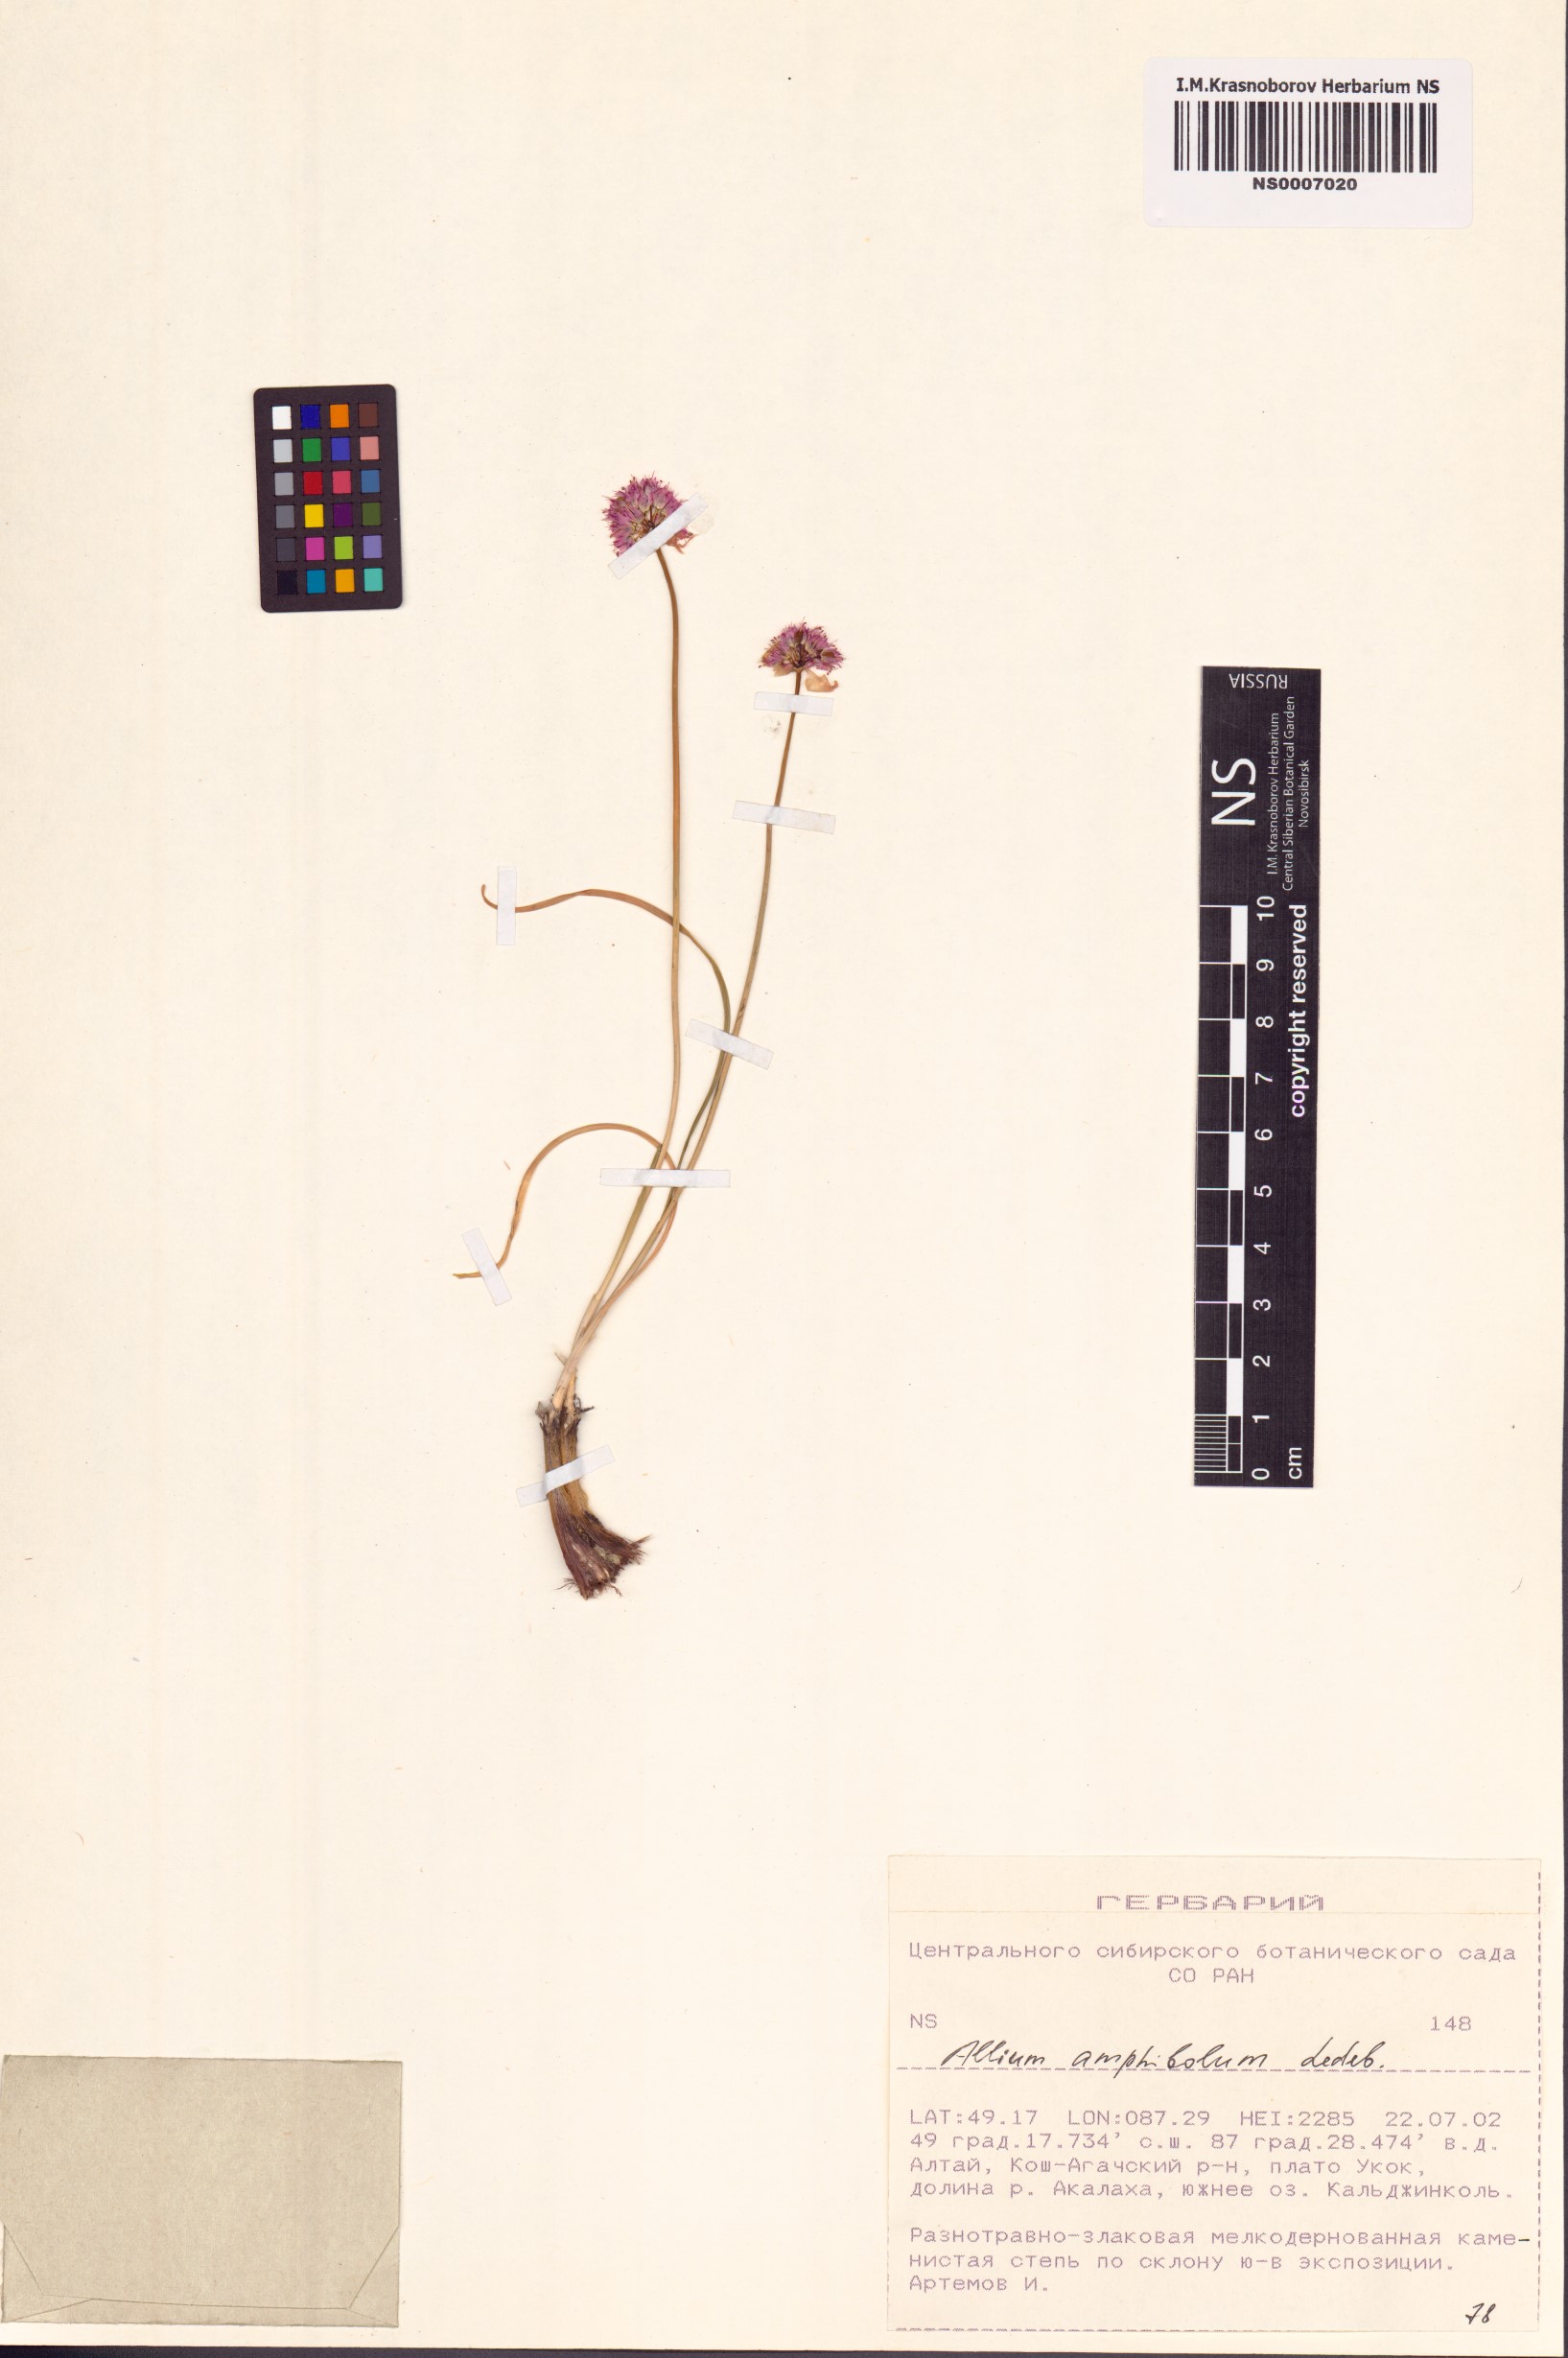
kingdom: Plantae
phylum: Tracheophyta
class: Liliopsida
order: Asparagales
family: Amaryllidaceae
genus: Allium
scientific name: Allium amphibolum
